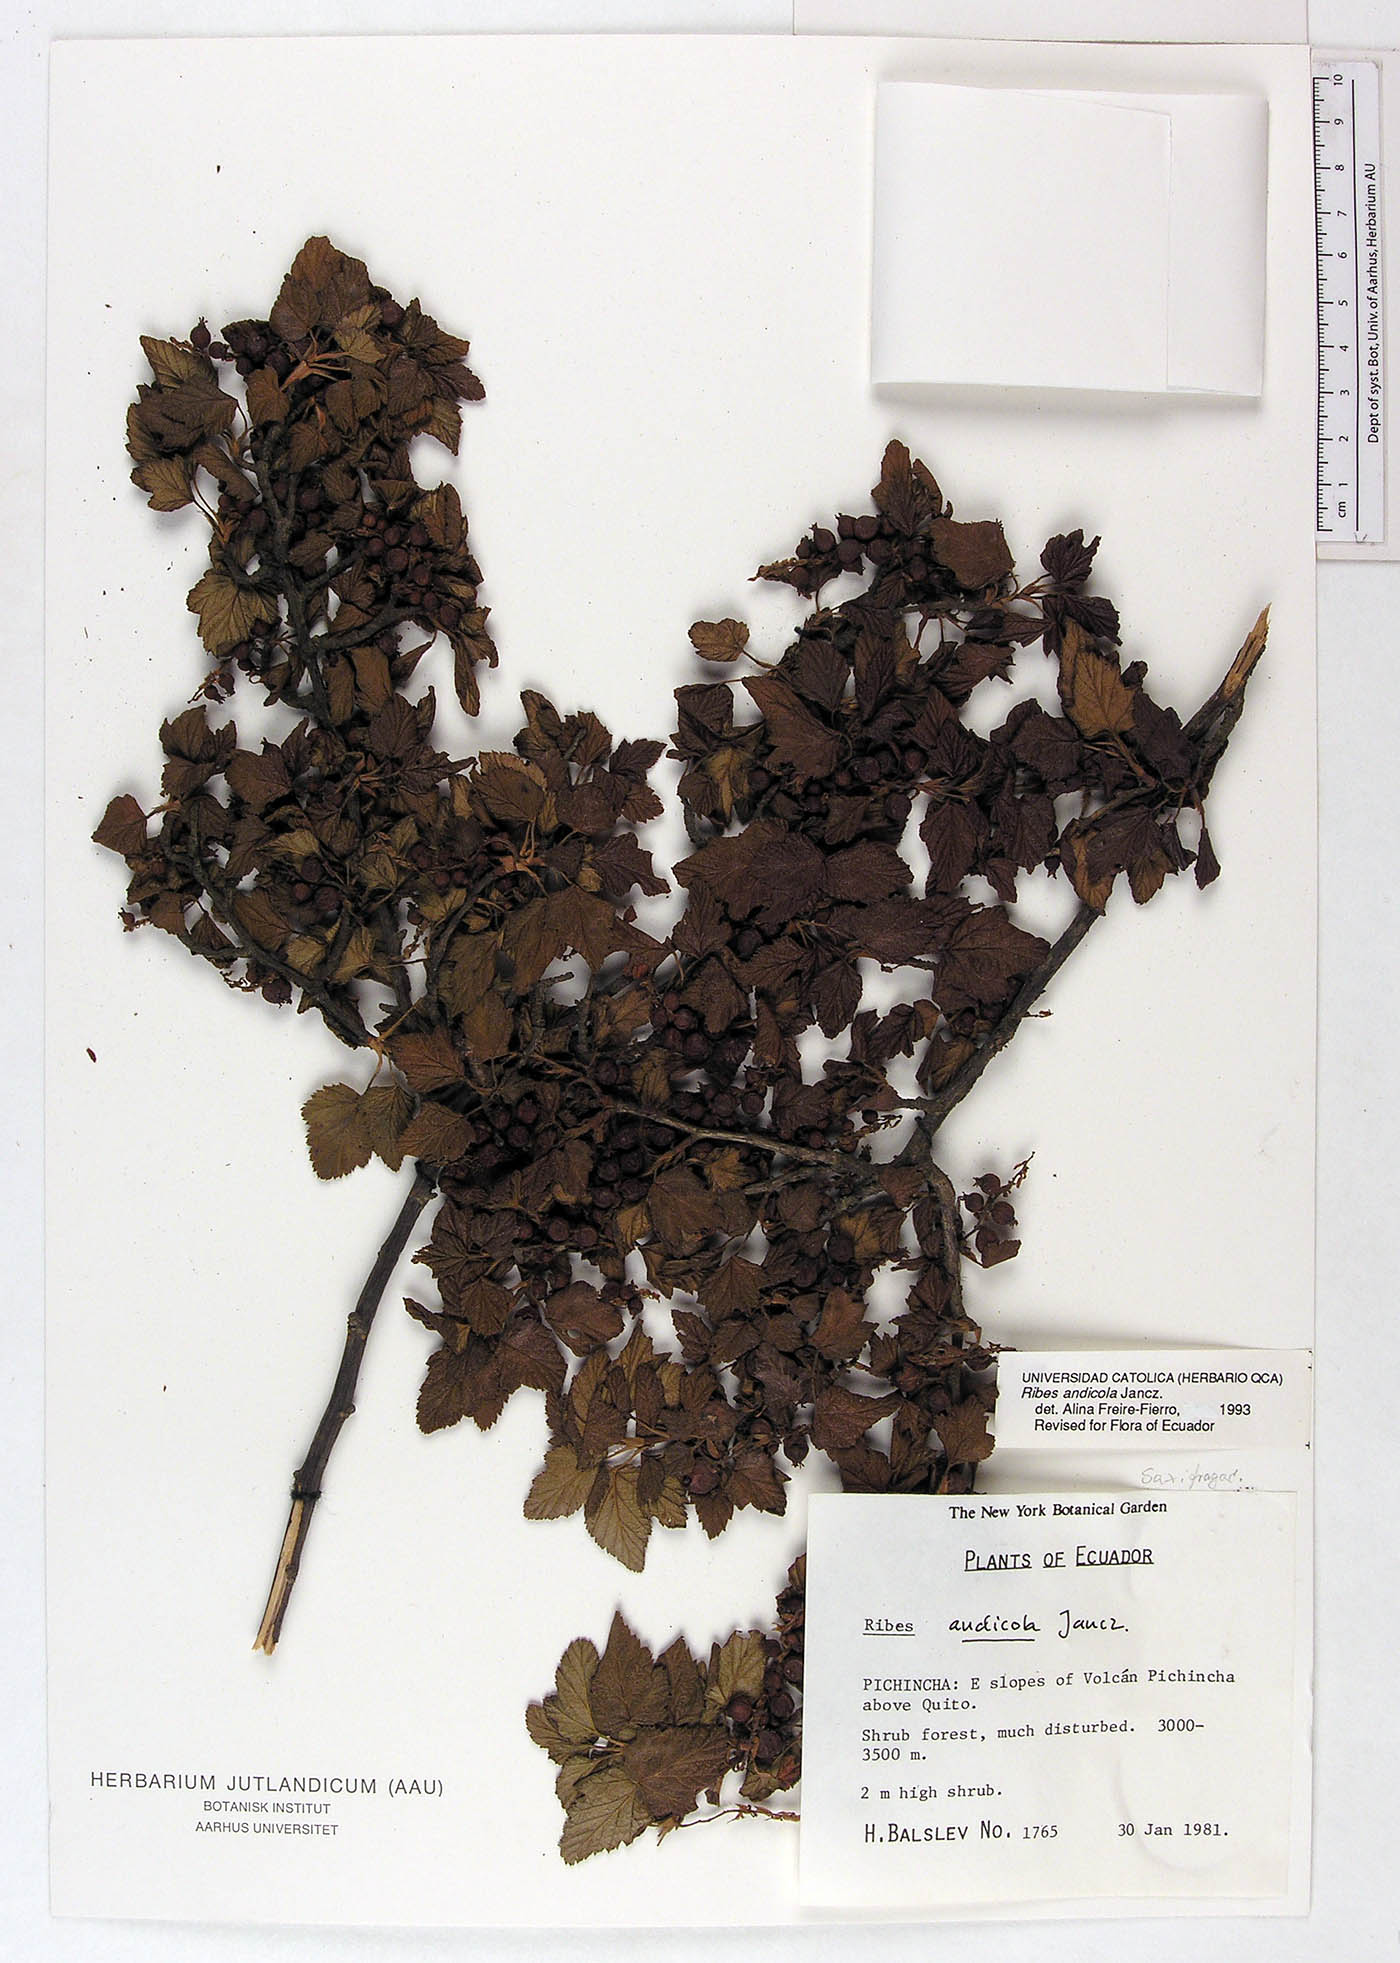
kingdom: Plantae
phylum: Tracheophyta
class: Magnoliopsida
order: Saxifragales
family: Grossulariaceae
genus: Ribes
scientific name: Ribes andicola
